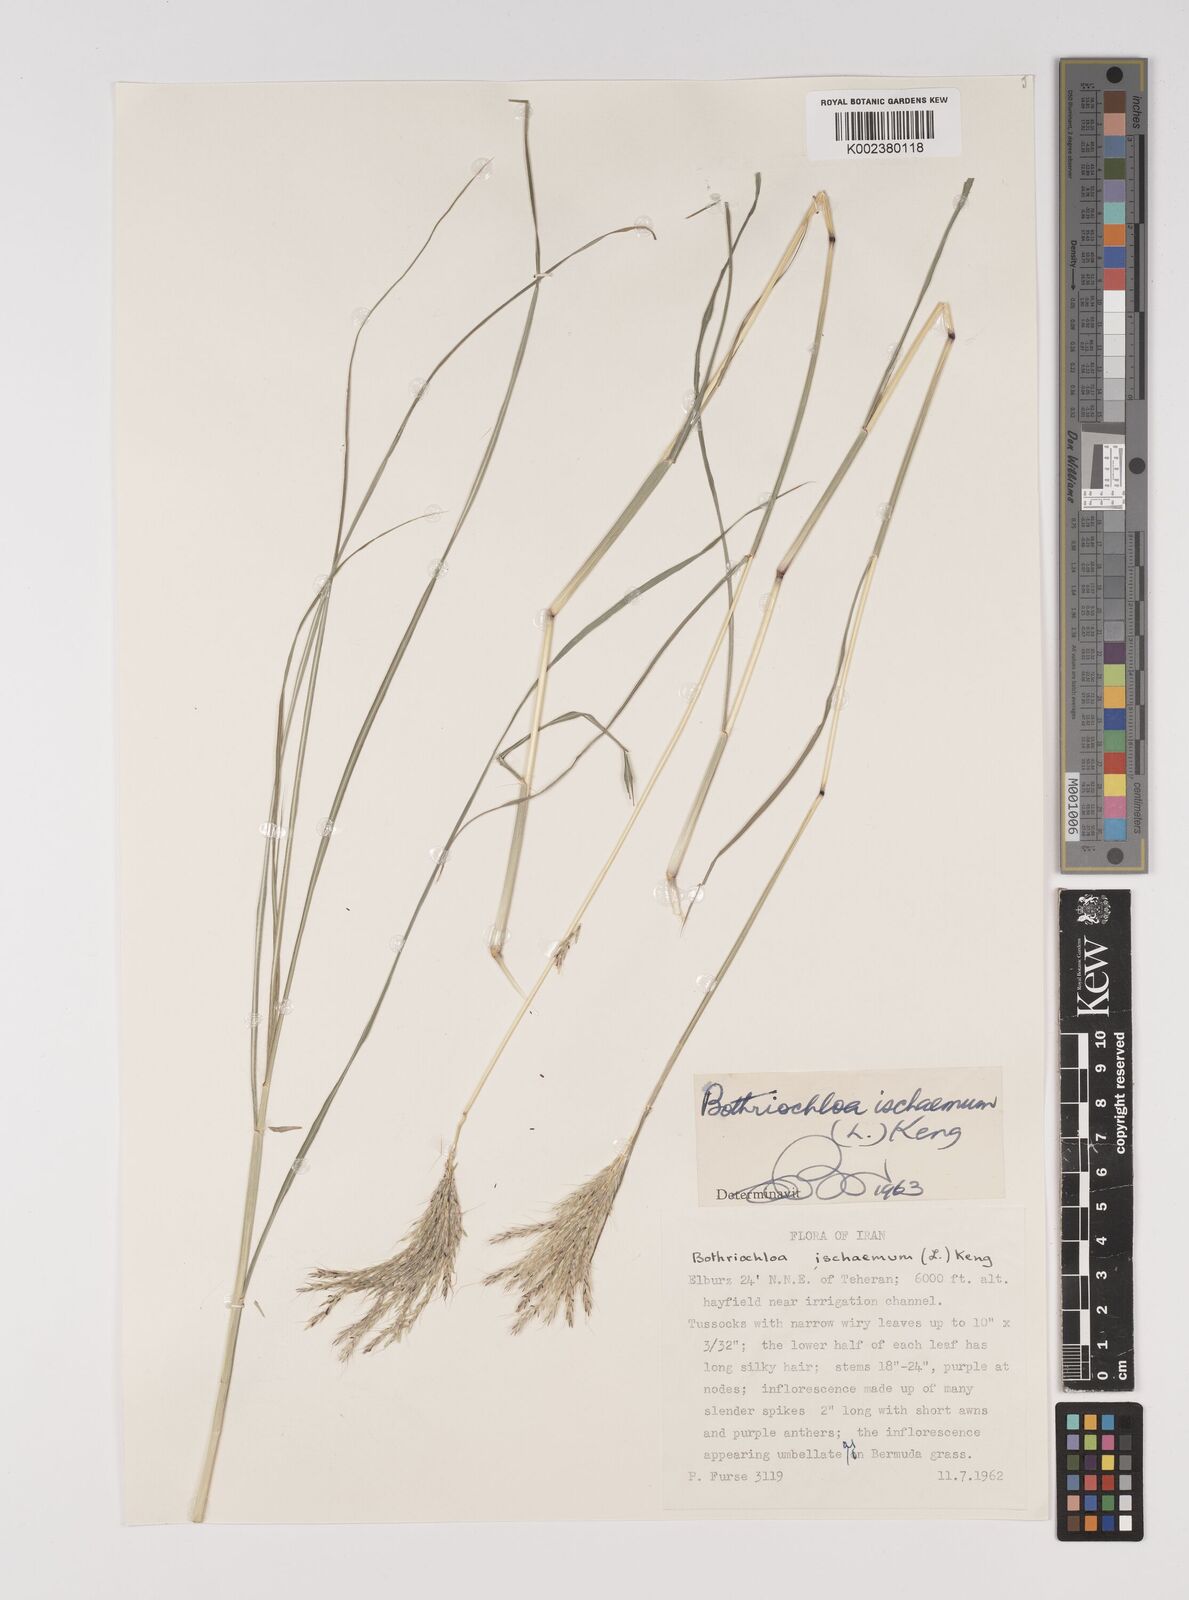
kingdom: Plantae
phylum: Tracheophyta
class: Liliopsida
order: Poales
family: Poaceae
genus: Bothriochloa
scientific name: Bothriochloa ischaemum
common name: Yellow bluestem
